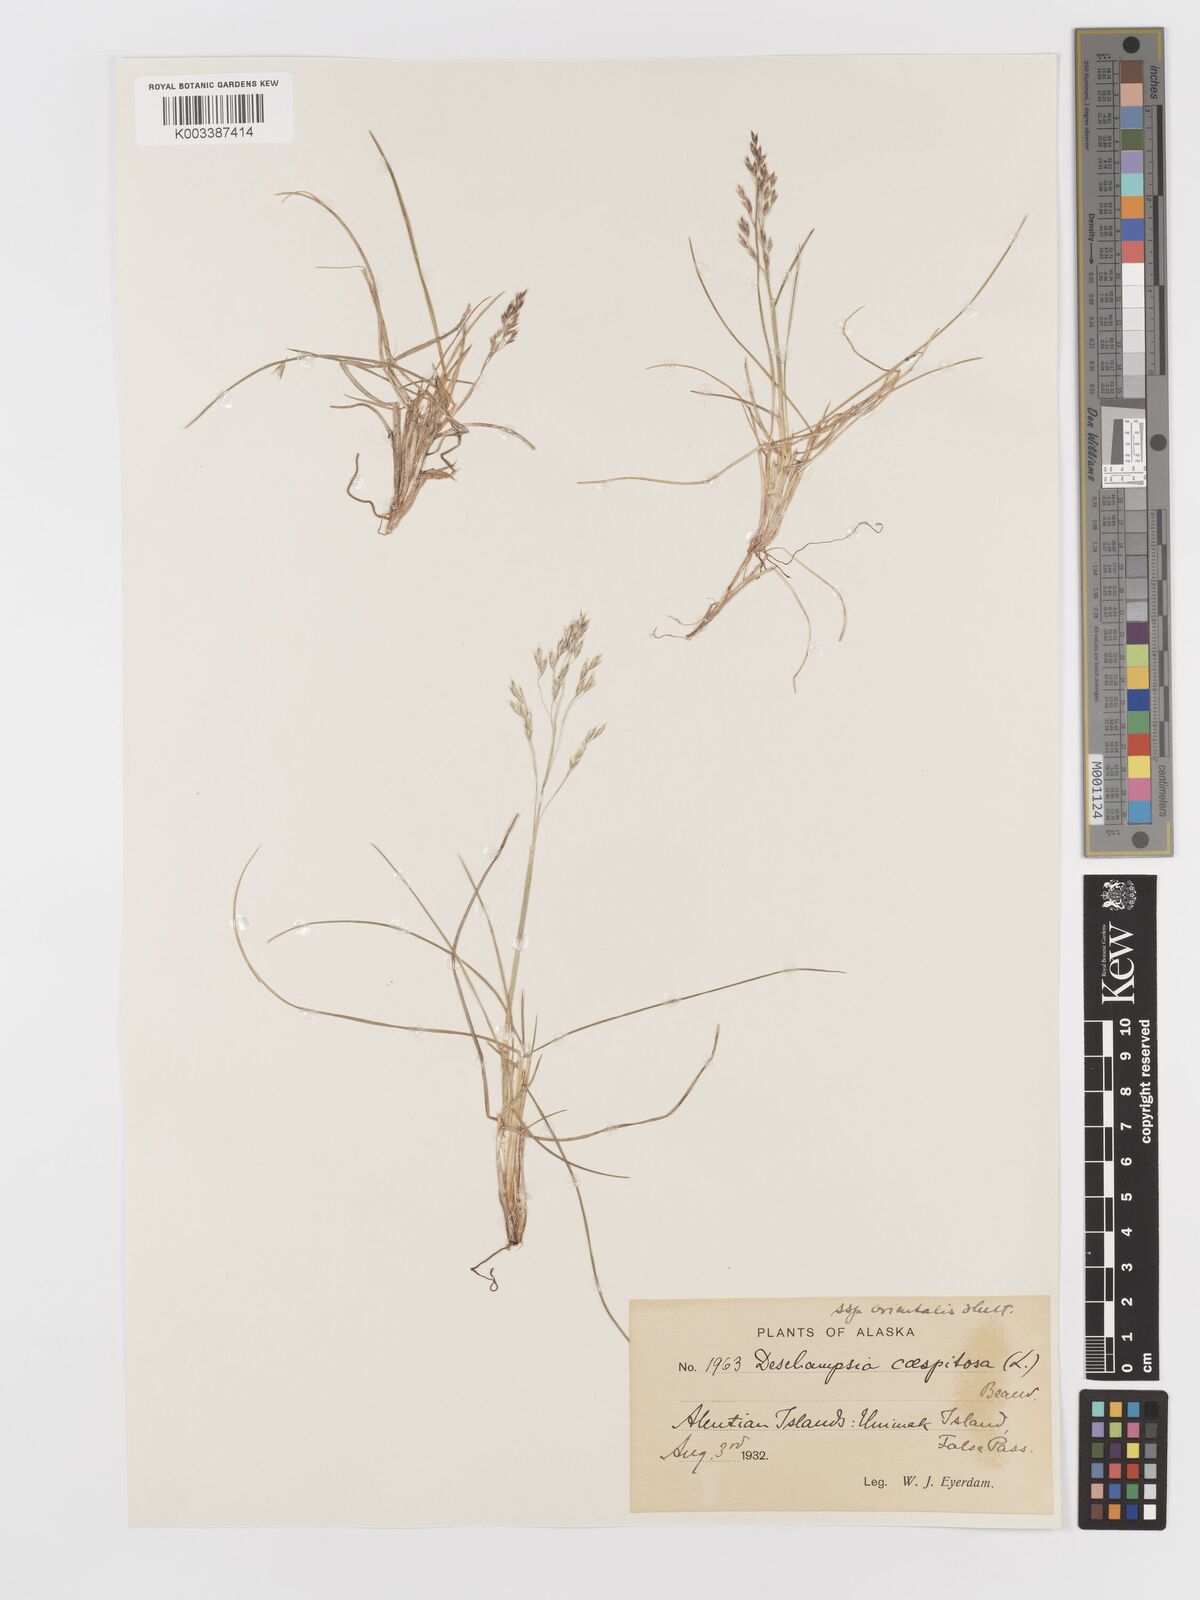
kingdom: Plantae
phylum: Tracheophyta
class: Liliopsida
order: Poales
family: Poaceae
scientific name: Poaceae
